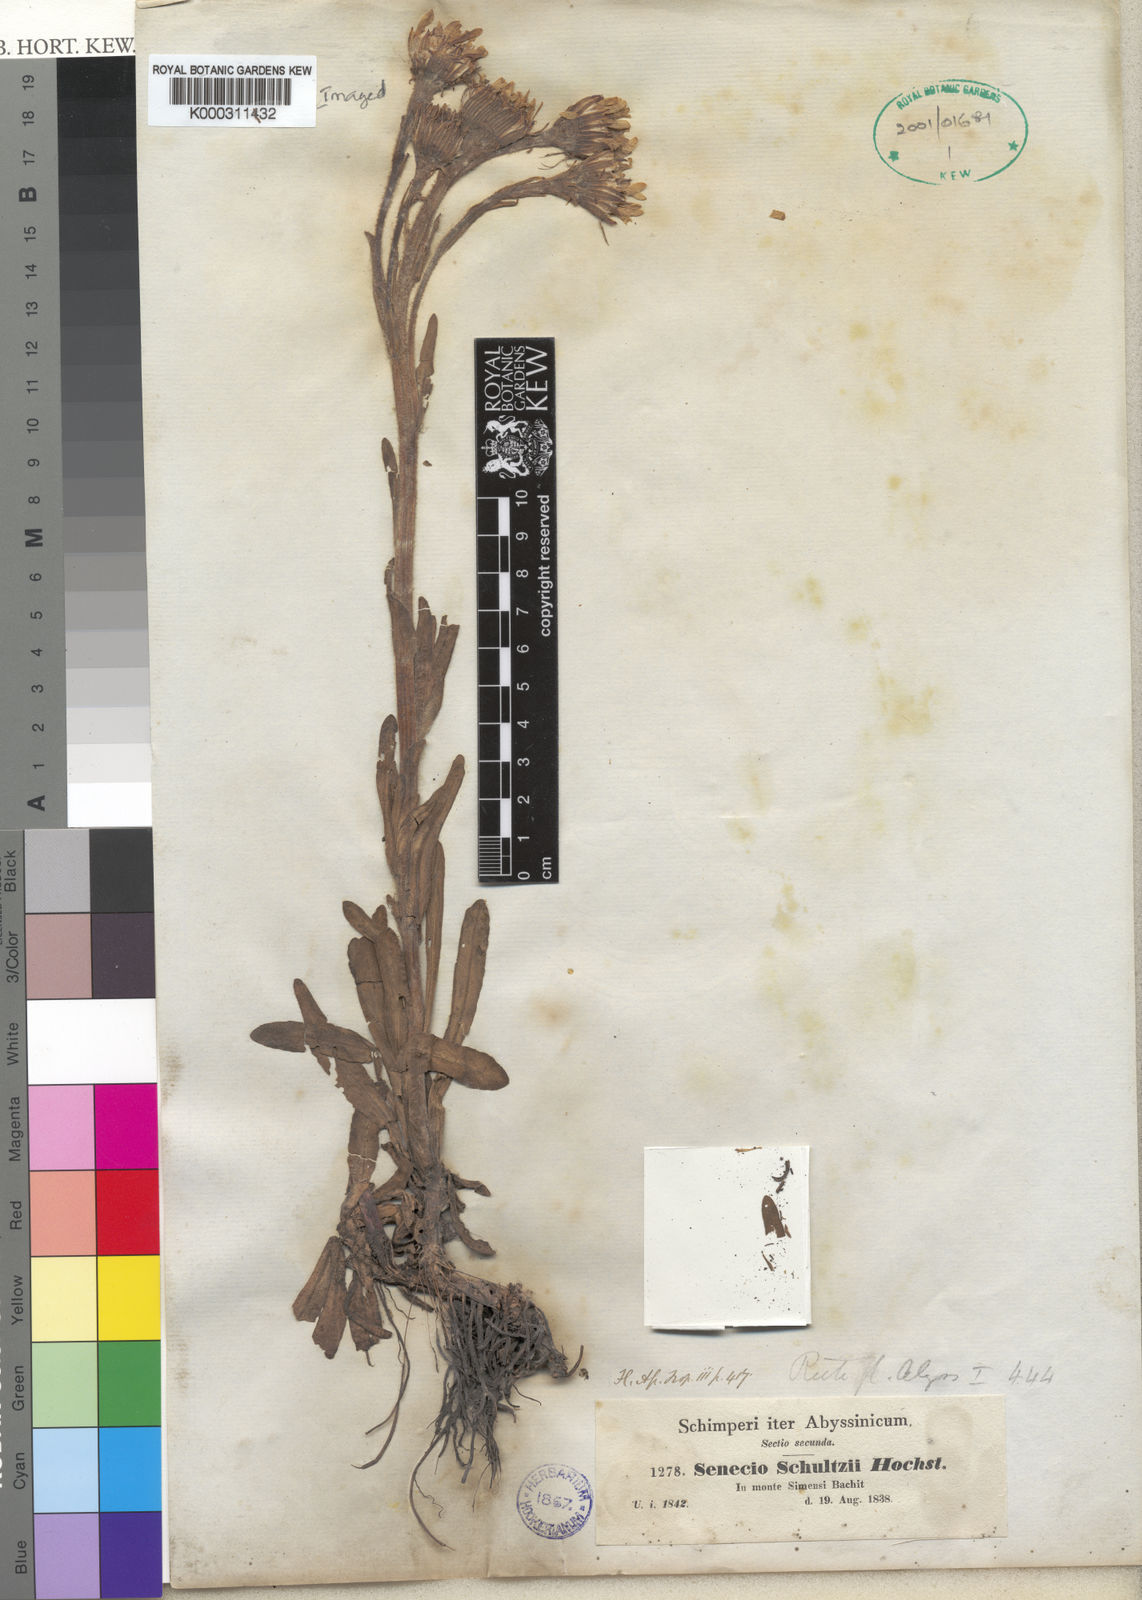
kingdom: Plantae
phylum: Tracheophyta
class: Magnoliopsida
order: Asterales
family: Asteraceae
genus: Senecio
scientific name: Senecio schultzii
